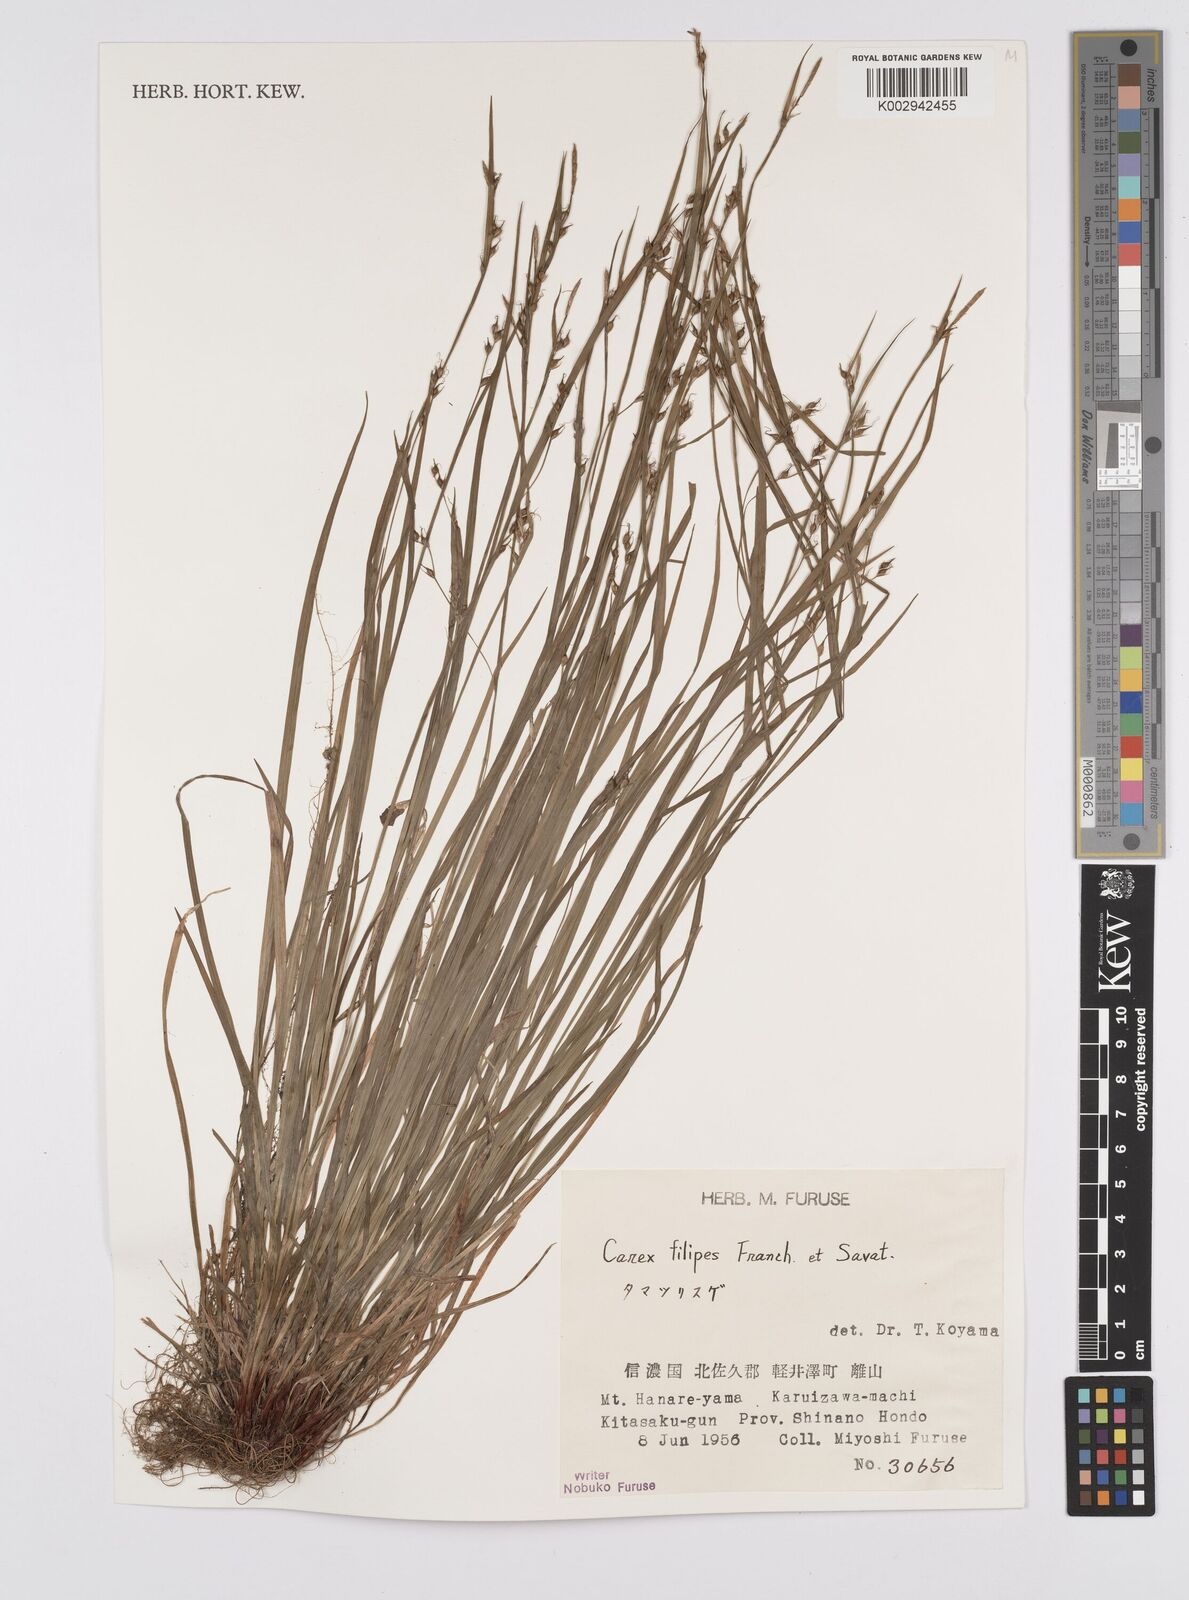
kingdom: Plantae
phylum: Tracheophyta
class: Liliopsida
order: Poales
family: Cyperaceae
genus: Carex
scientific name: Carex filipes
